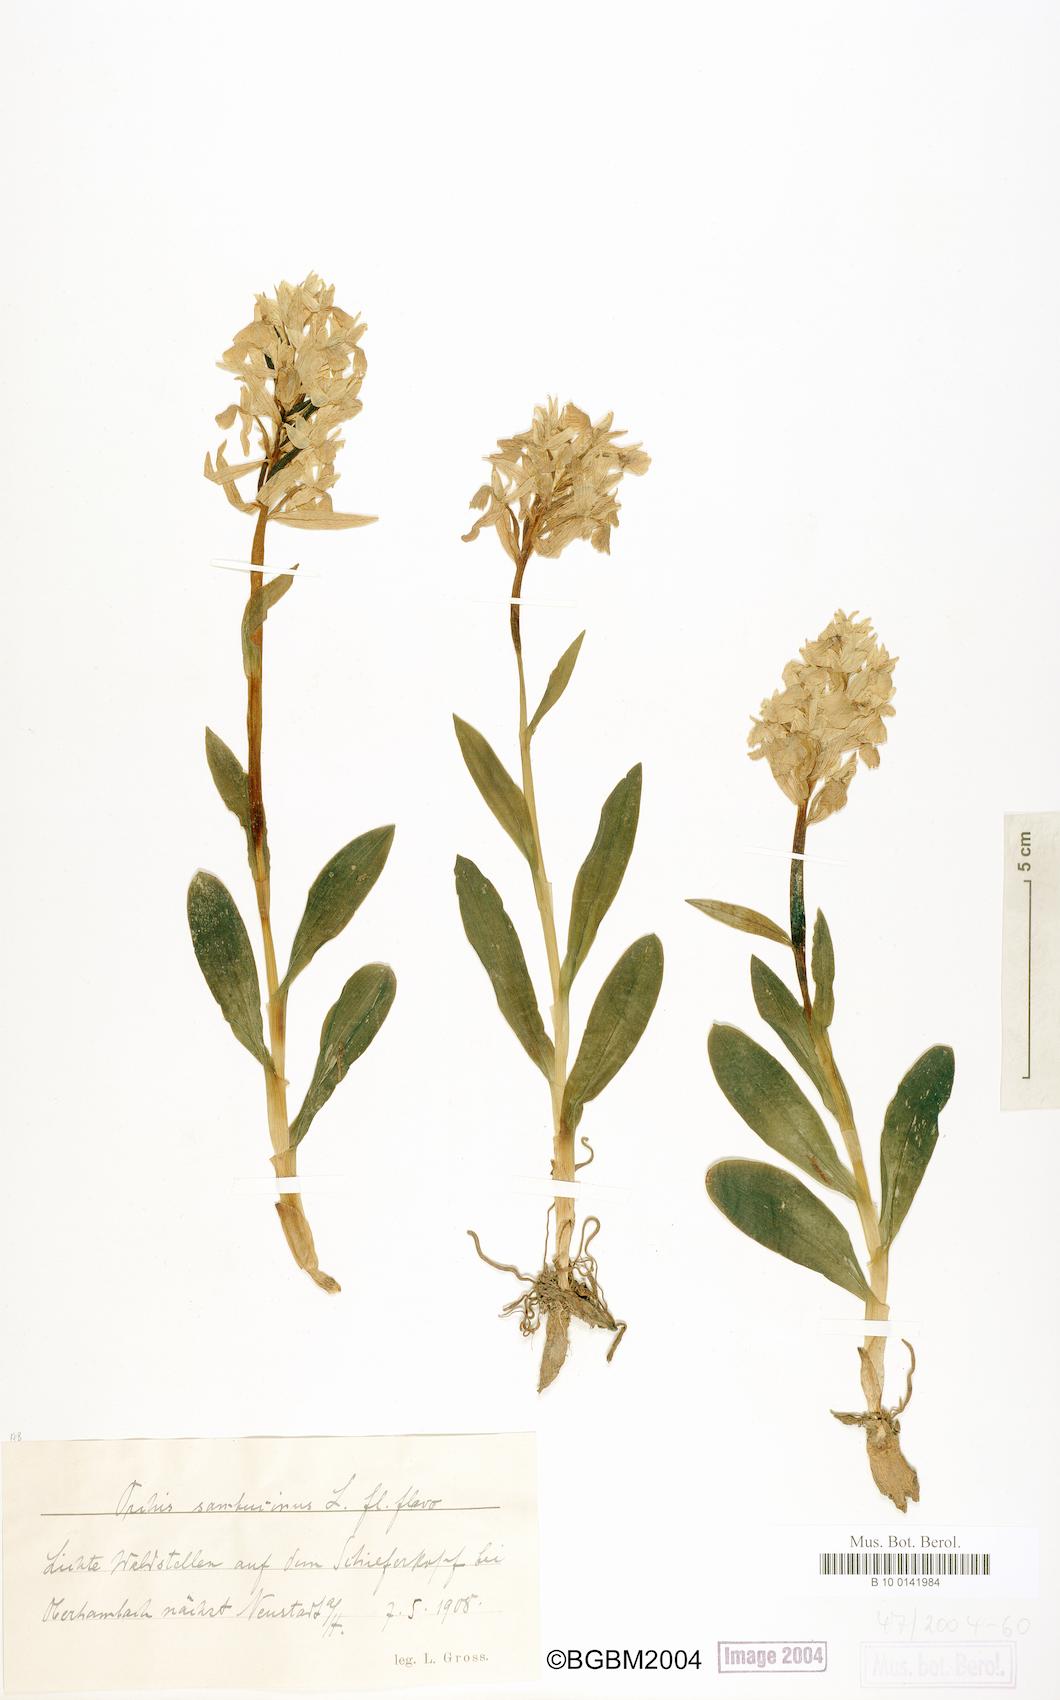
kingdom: Plantae
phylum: Tracheophyta
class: Liliopsida
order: Asparagales
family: Orchidaceae
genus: Dactylorhiza
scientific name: Dactylorhiza sambucina
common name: Elder-flowered orchid
